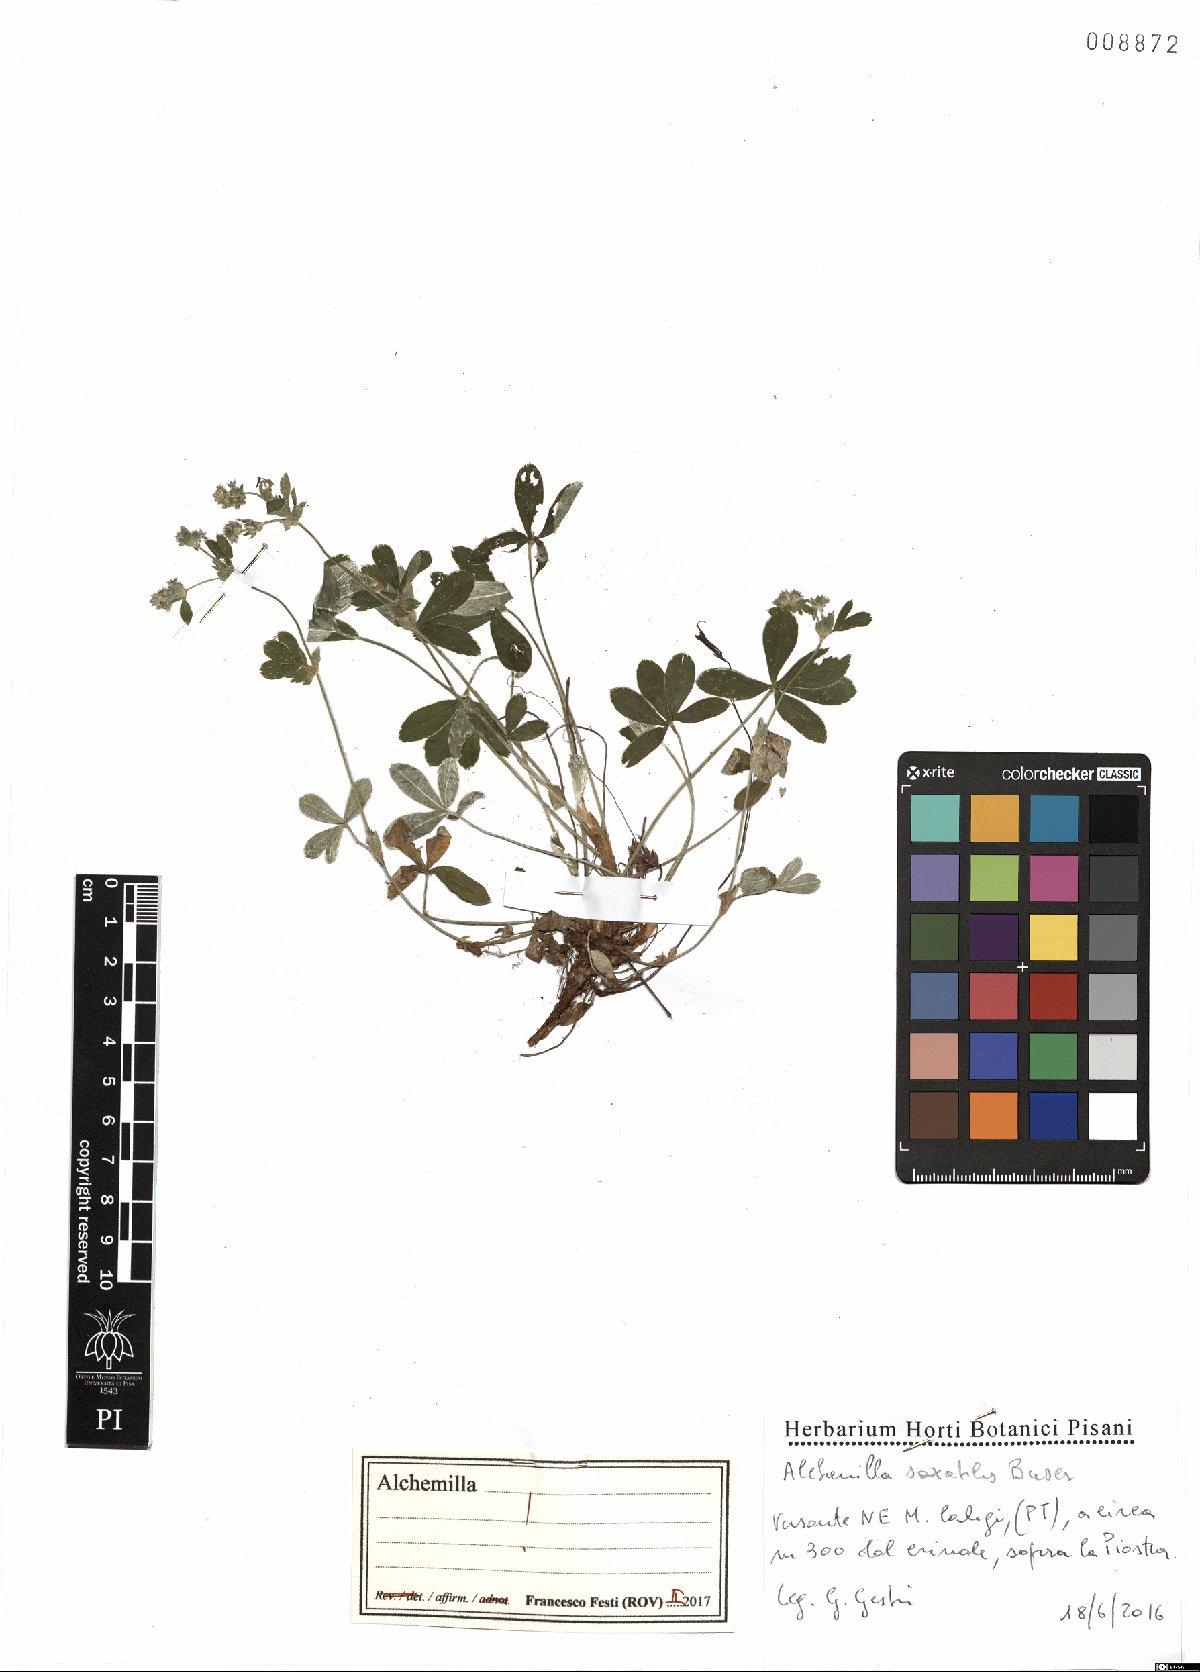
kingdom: Plantae
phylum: Tracheophyta
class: Magnoliopsida
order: Rosales
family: Rosaceae
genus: Alchemilla
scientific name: Alchemilla saxatilis
